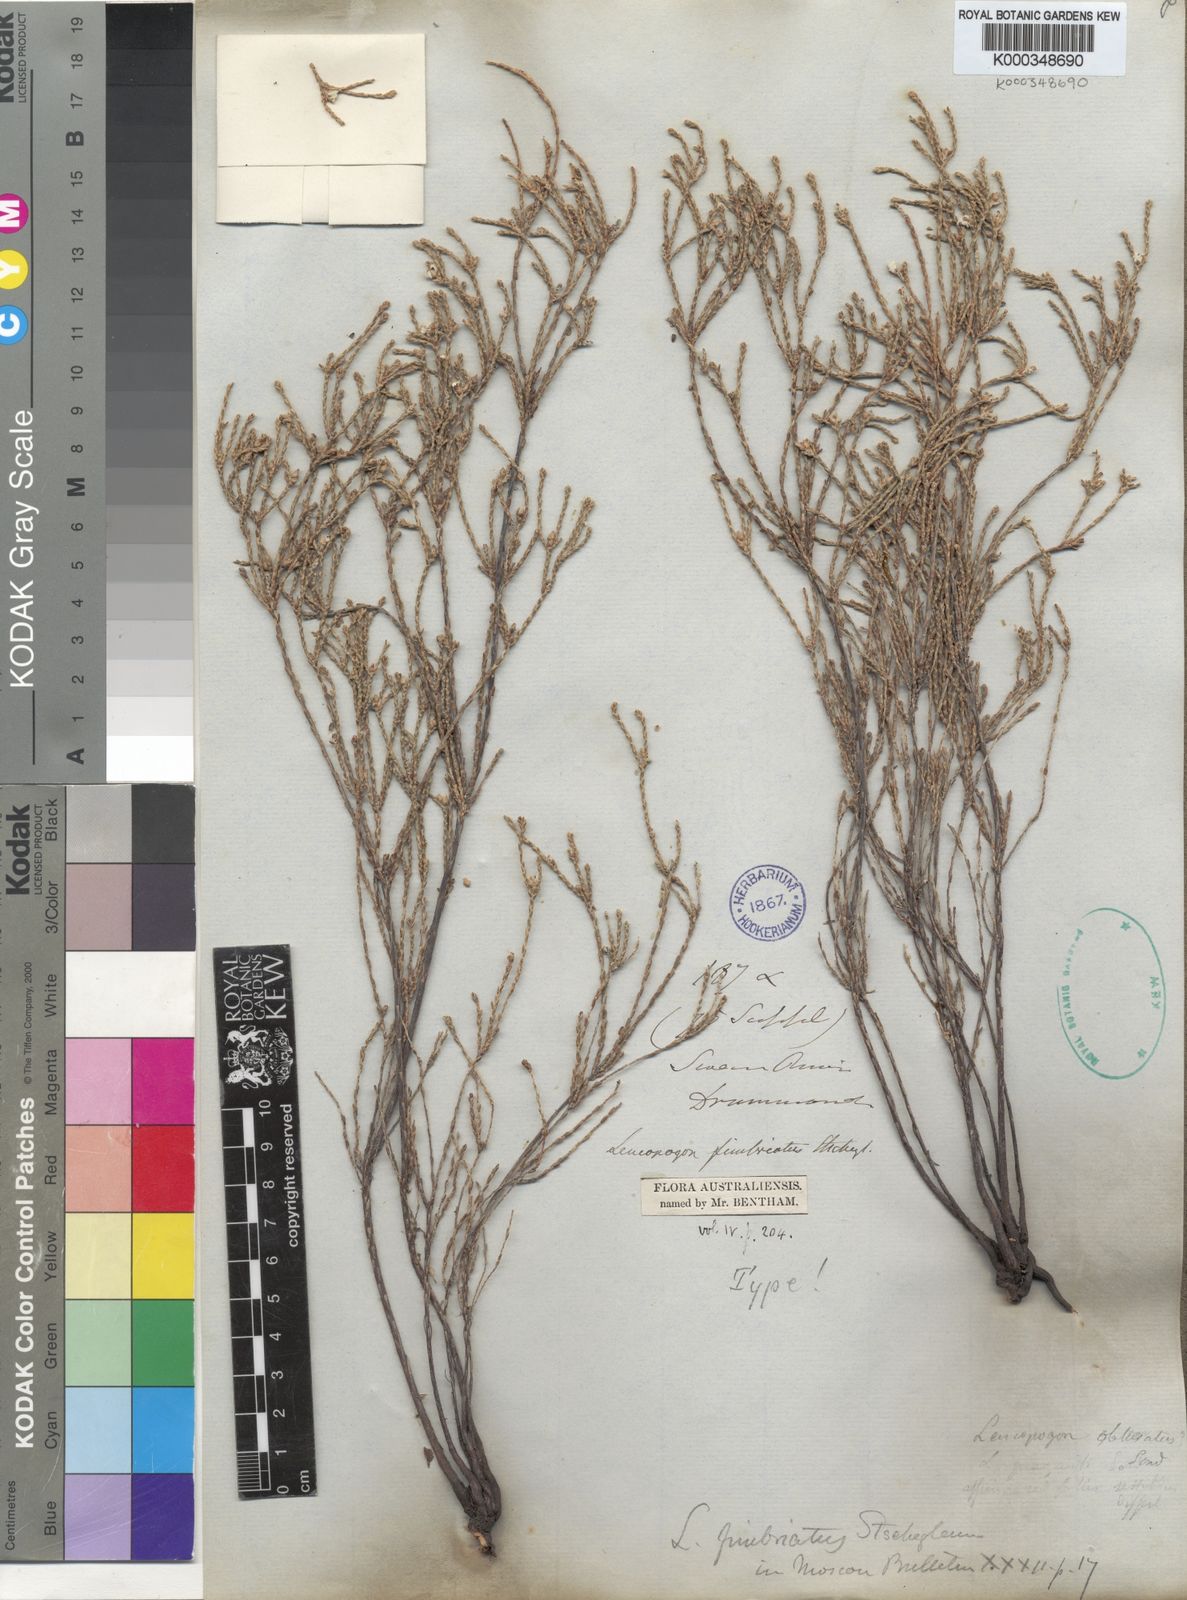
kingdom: Plantae
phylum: Tracheophyta
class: Magnoliopsida
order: Ericales
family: Ericaceae
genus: Leucopogon
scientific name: Leucopogon fimbriatus
